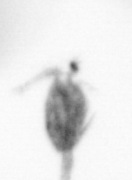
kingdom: Animalia
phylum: Arthropoda
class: Copepoda
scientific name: Copepoda
